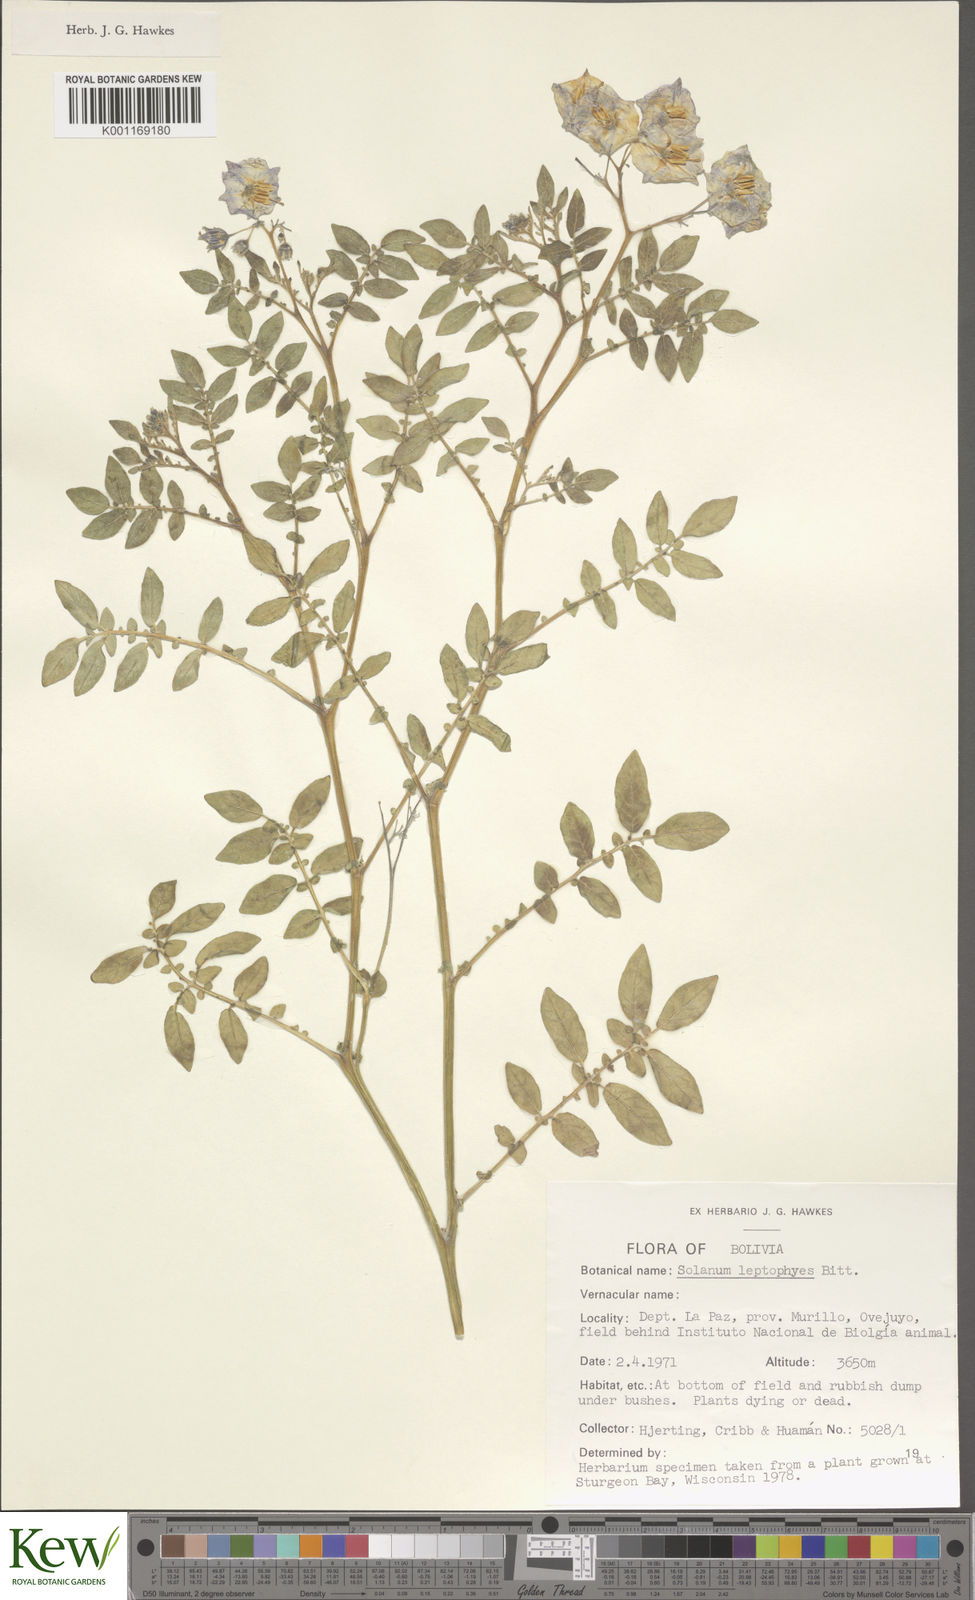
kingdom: Plantae
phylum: Tracheophyta
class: Magnoliopsida
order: Solanales
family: Solanaceae
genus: Solanum
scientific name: Solanum brevicaule
